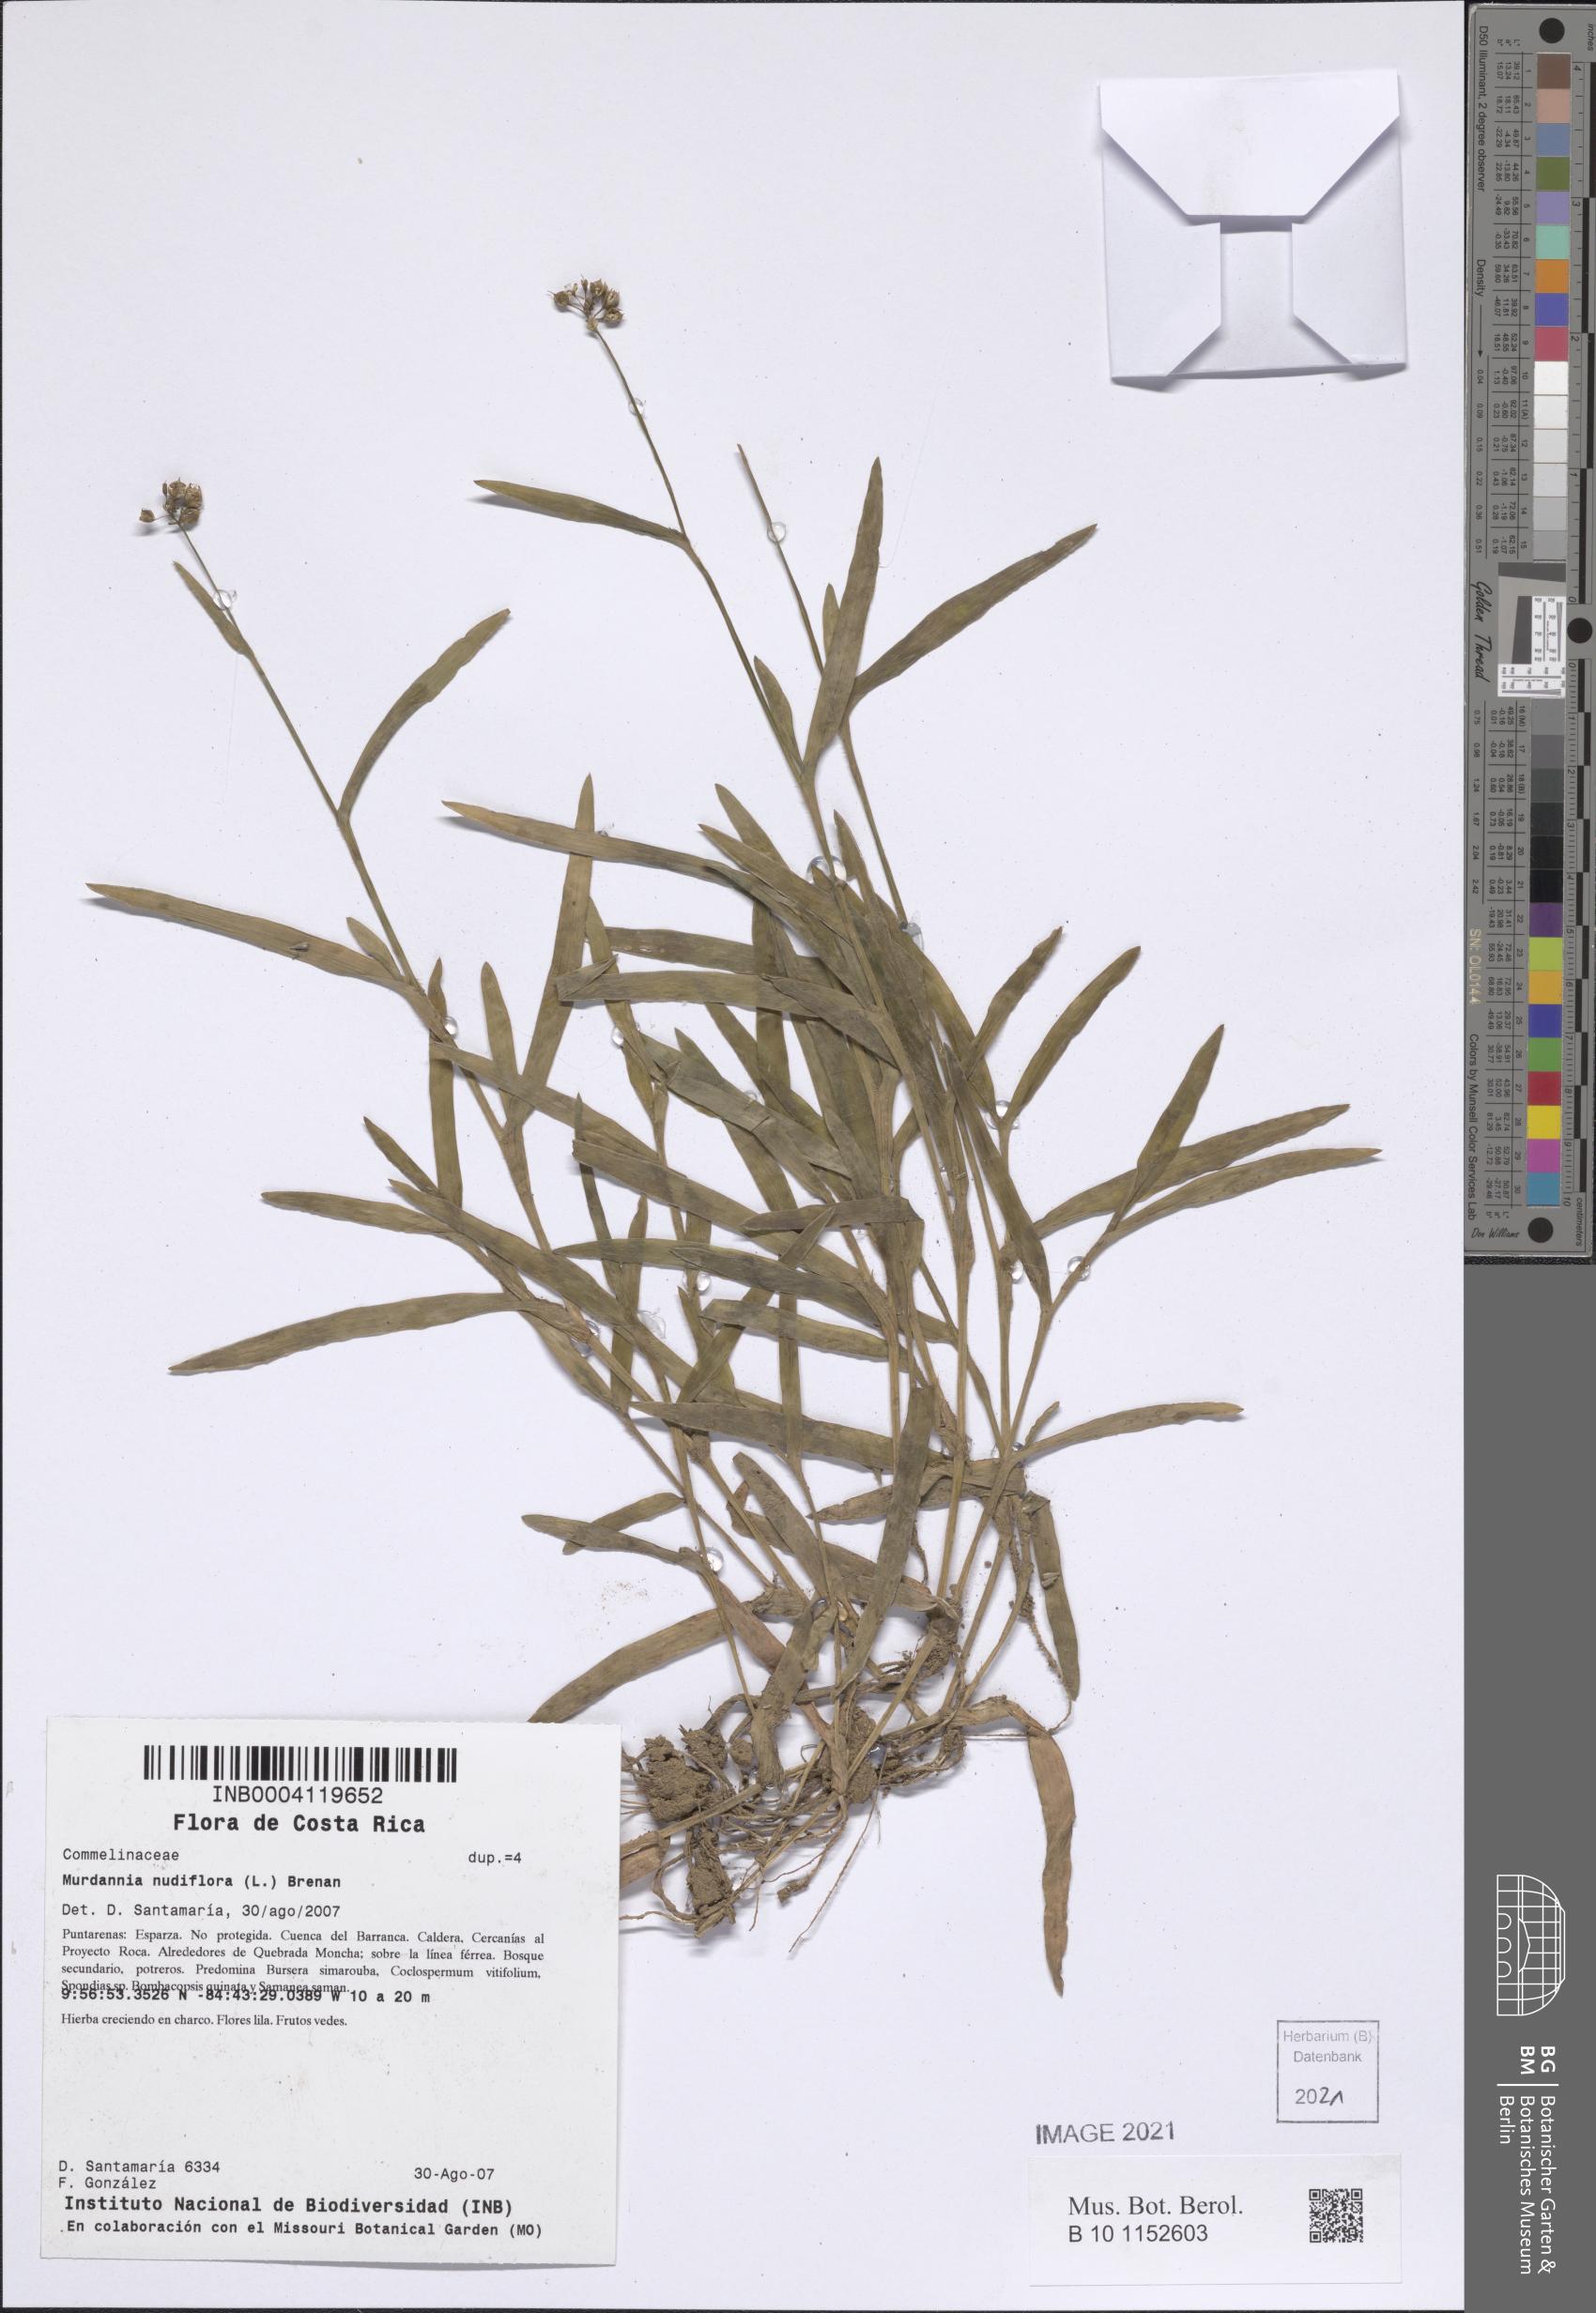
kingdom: Plantae
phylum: Tracheophyta
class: Liliopsida
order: Commelinales
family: Commelinaceae
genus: Murdannia
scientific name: Murdannia nudiflora
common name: Nakedstem dewflower
